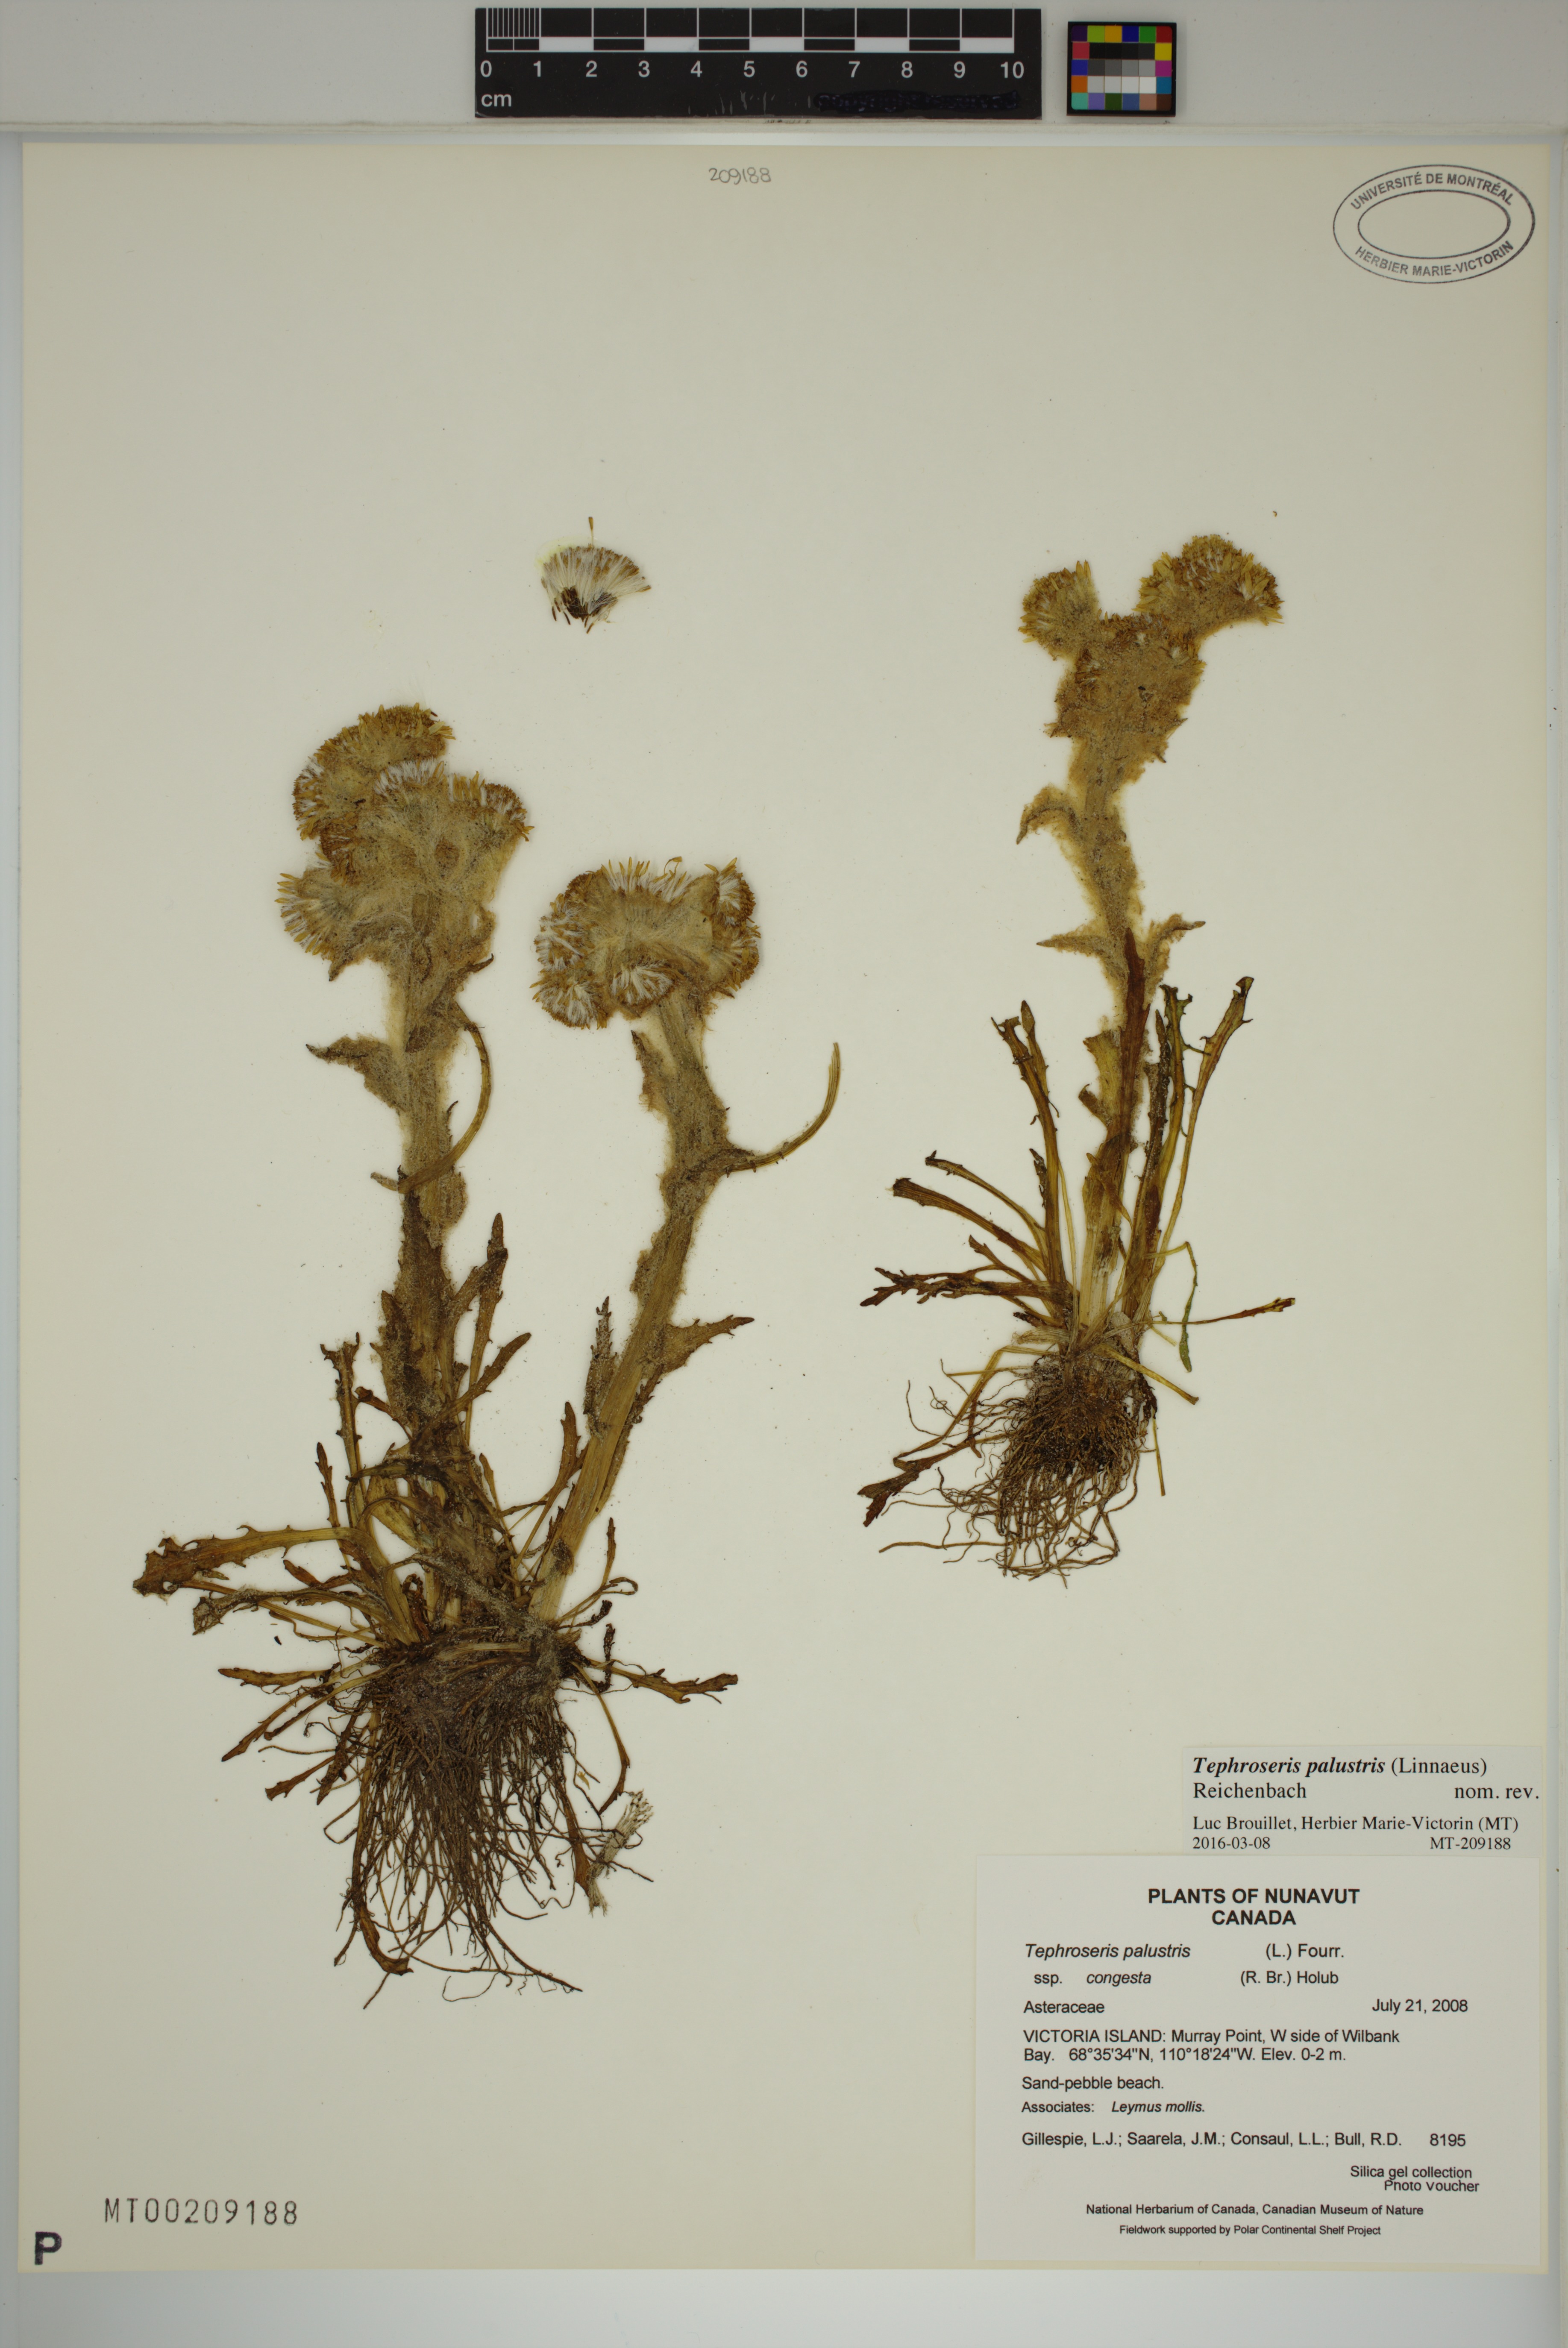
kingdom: Plantae
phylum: Tracheophyta
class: Magnoliopsida
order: Asterales
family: Asteraceae
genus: Tephroseris
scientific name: Tephroseris palustris
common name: Marsh fleawort
